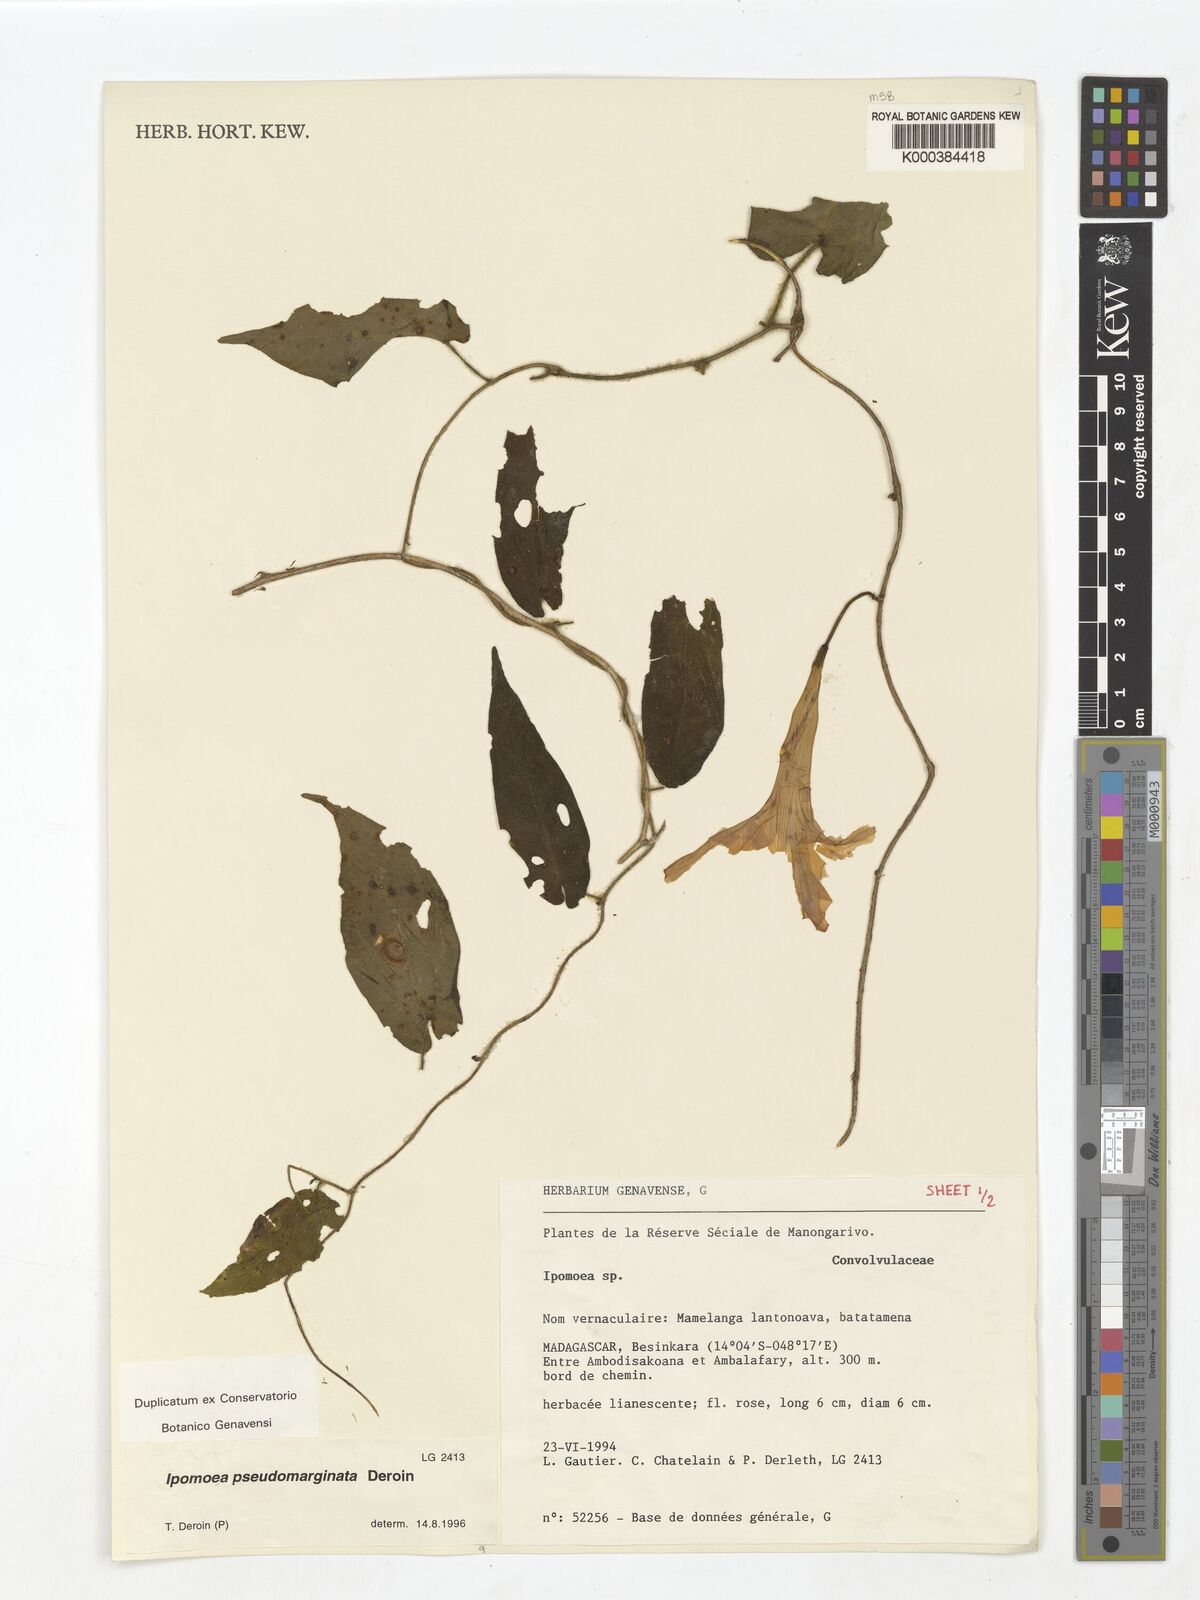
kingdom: Plantae
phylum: Tracheophyta
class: Magnoliopsida
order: Solanales
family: Convolvulaceae
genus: Ipomoea
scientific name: Ipomoea pseudomarginata
